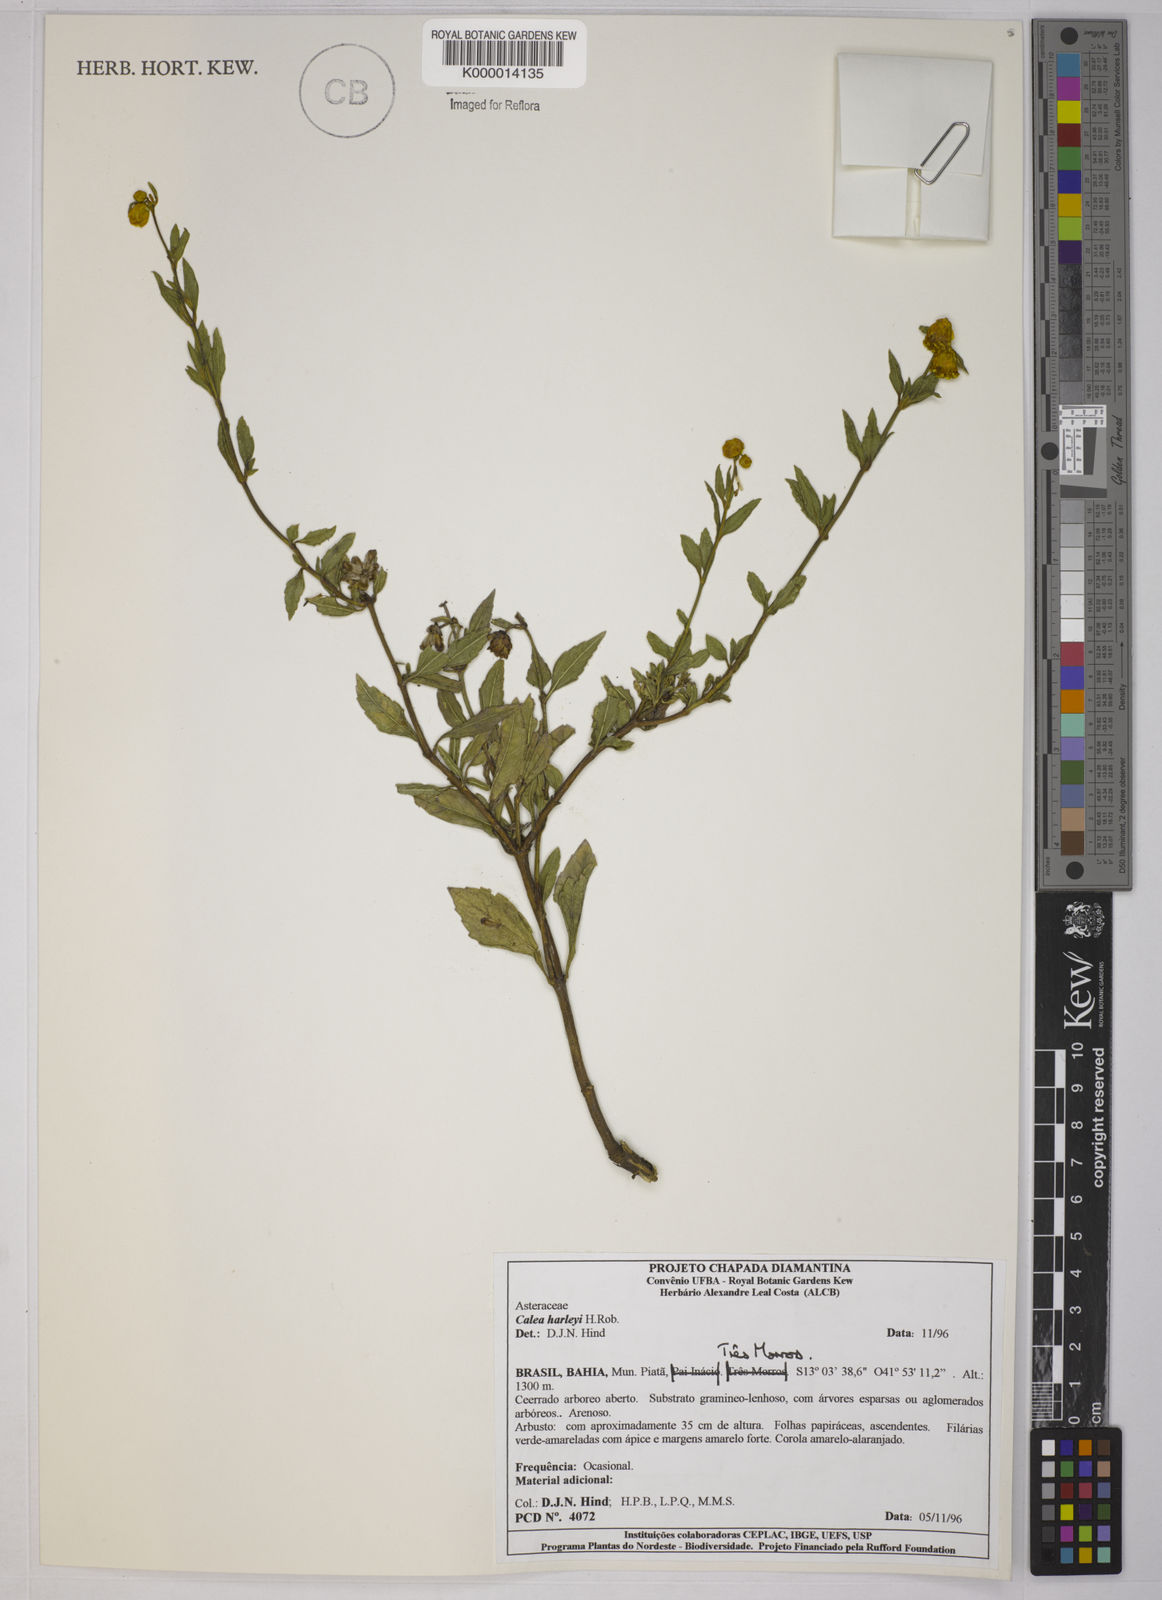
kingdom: Plantae
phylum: Tracheophyta
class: Magnoliopsida
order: Asterales
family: Asteraceae
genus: Calea
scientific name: Calea harleyi
